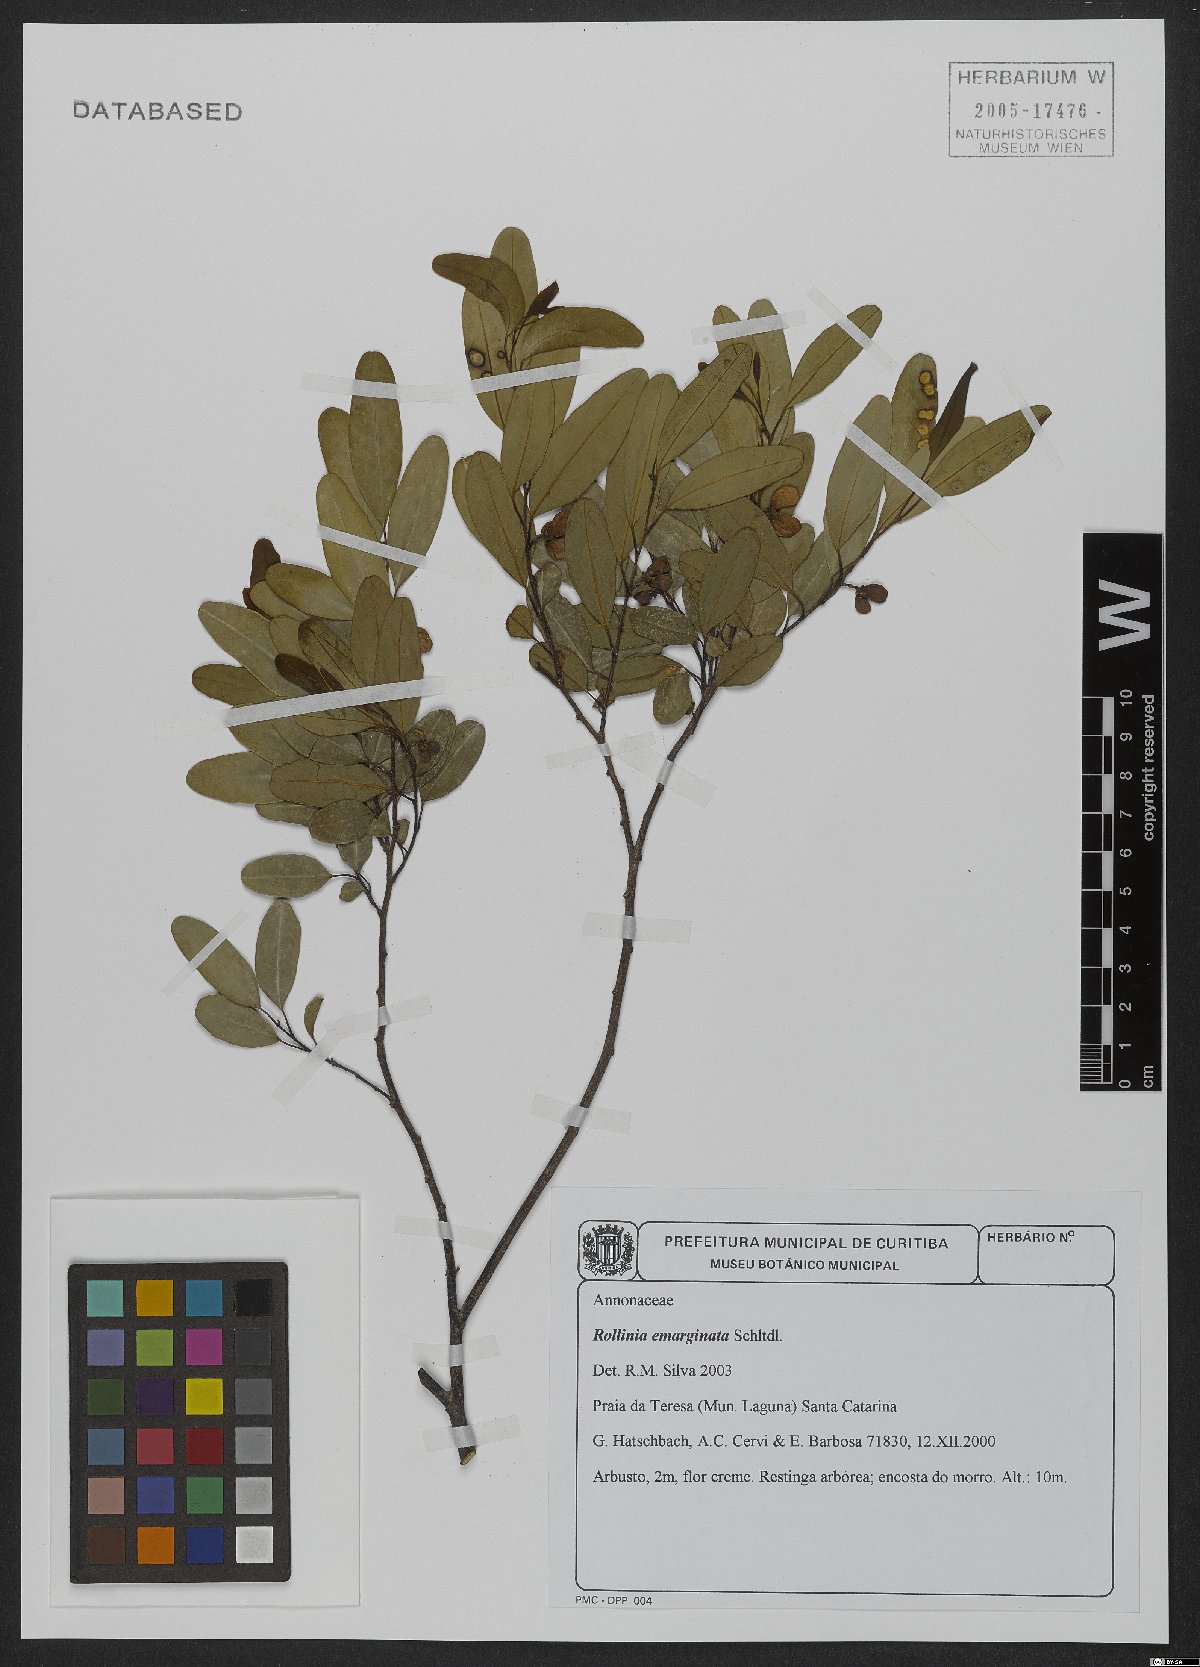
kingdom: Plantae
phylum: Tracheophyta
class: Magnoliopsida
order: Magnoliales
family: Annonaceae
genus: Annona
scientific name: Annona emarginata
